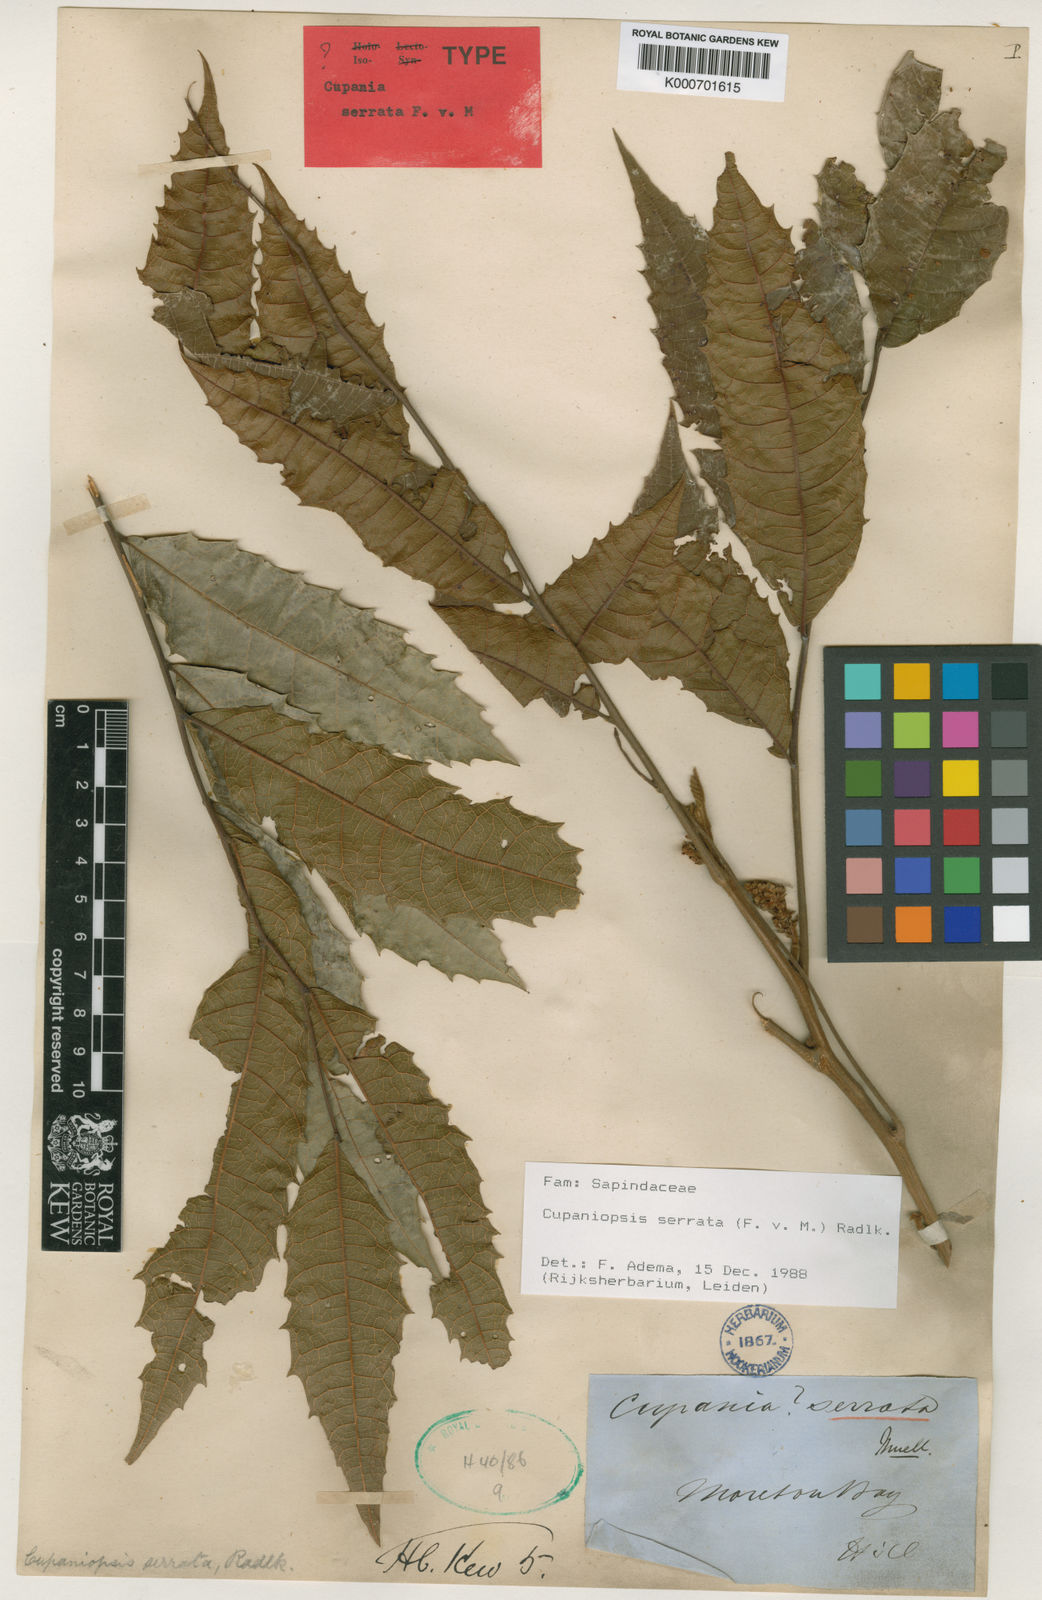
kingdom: Plantae
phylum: Tracheophyta
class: Magnoliopsida
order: Sapindales
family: Sapindaceae
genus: Cupaniopsis
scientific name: Cupaniopsis serrata
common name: Rusty tuckeroo
